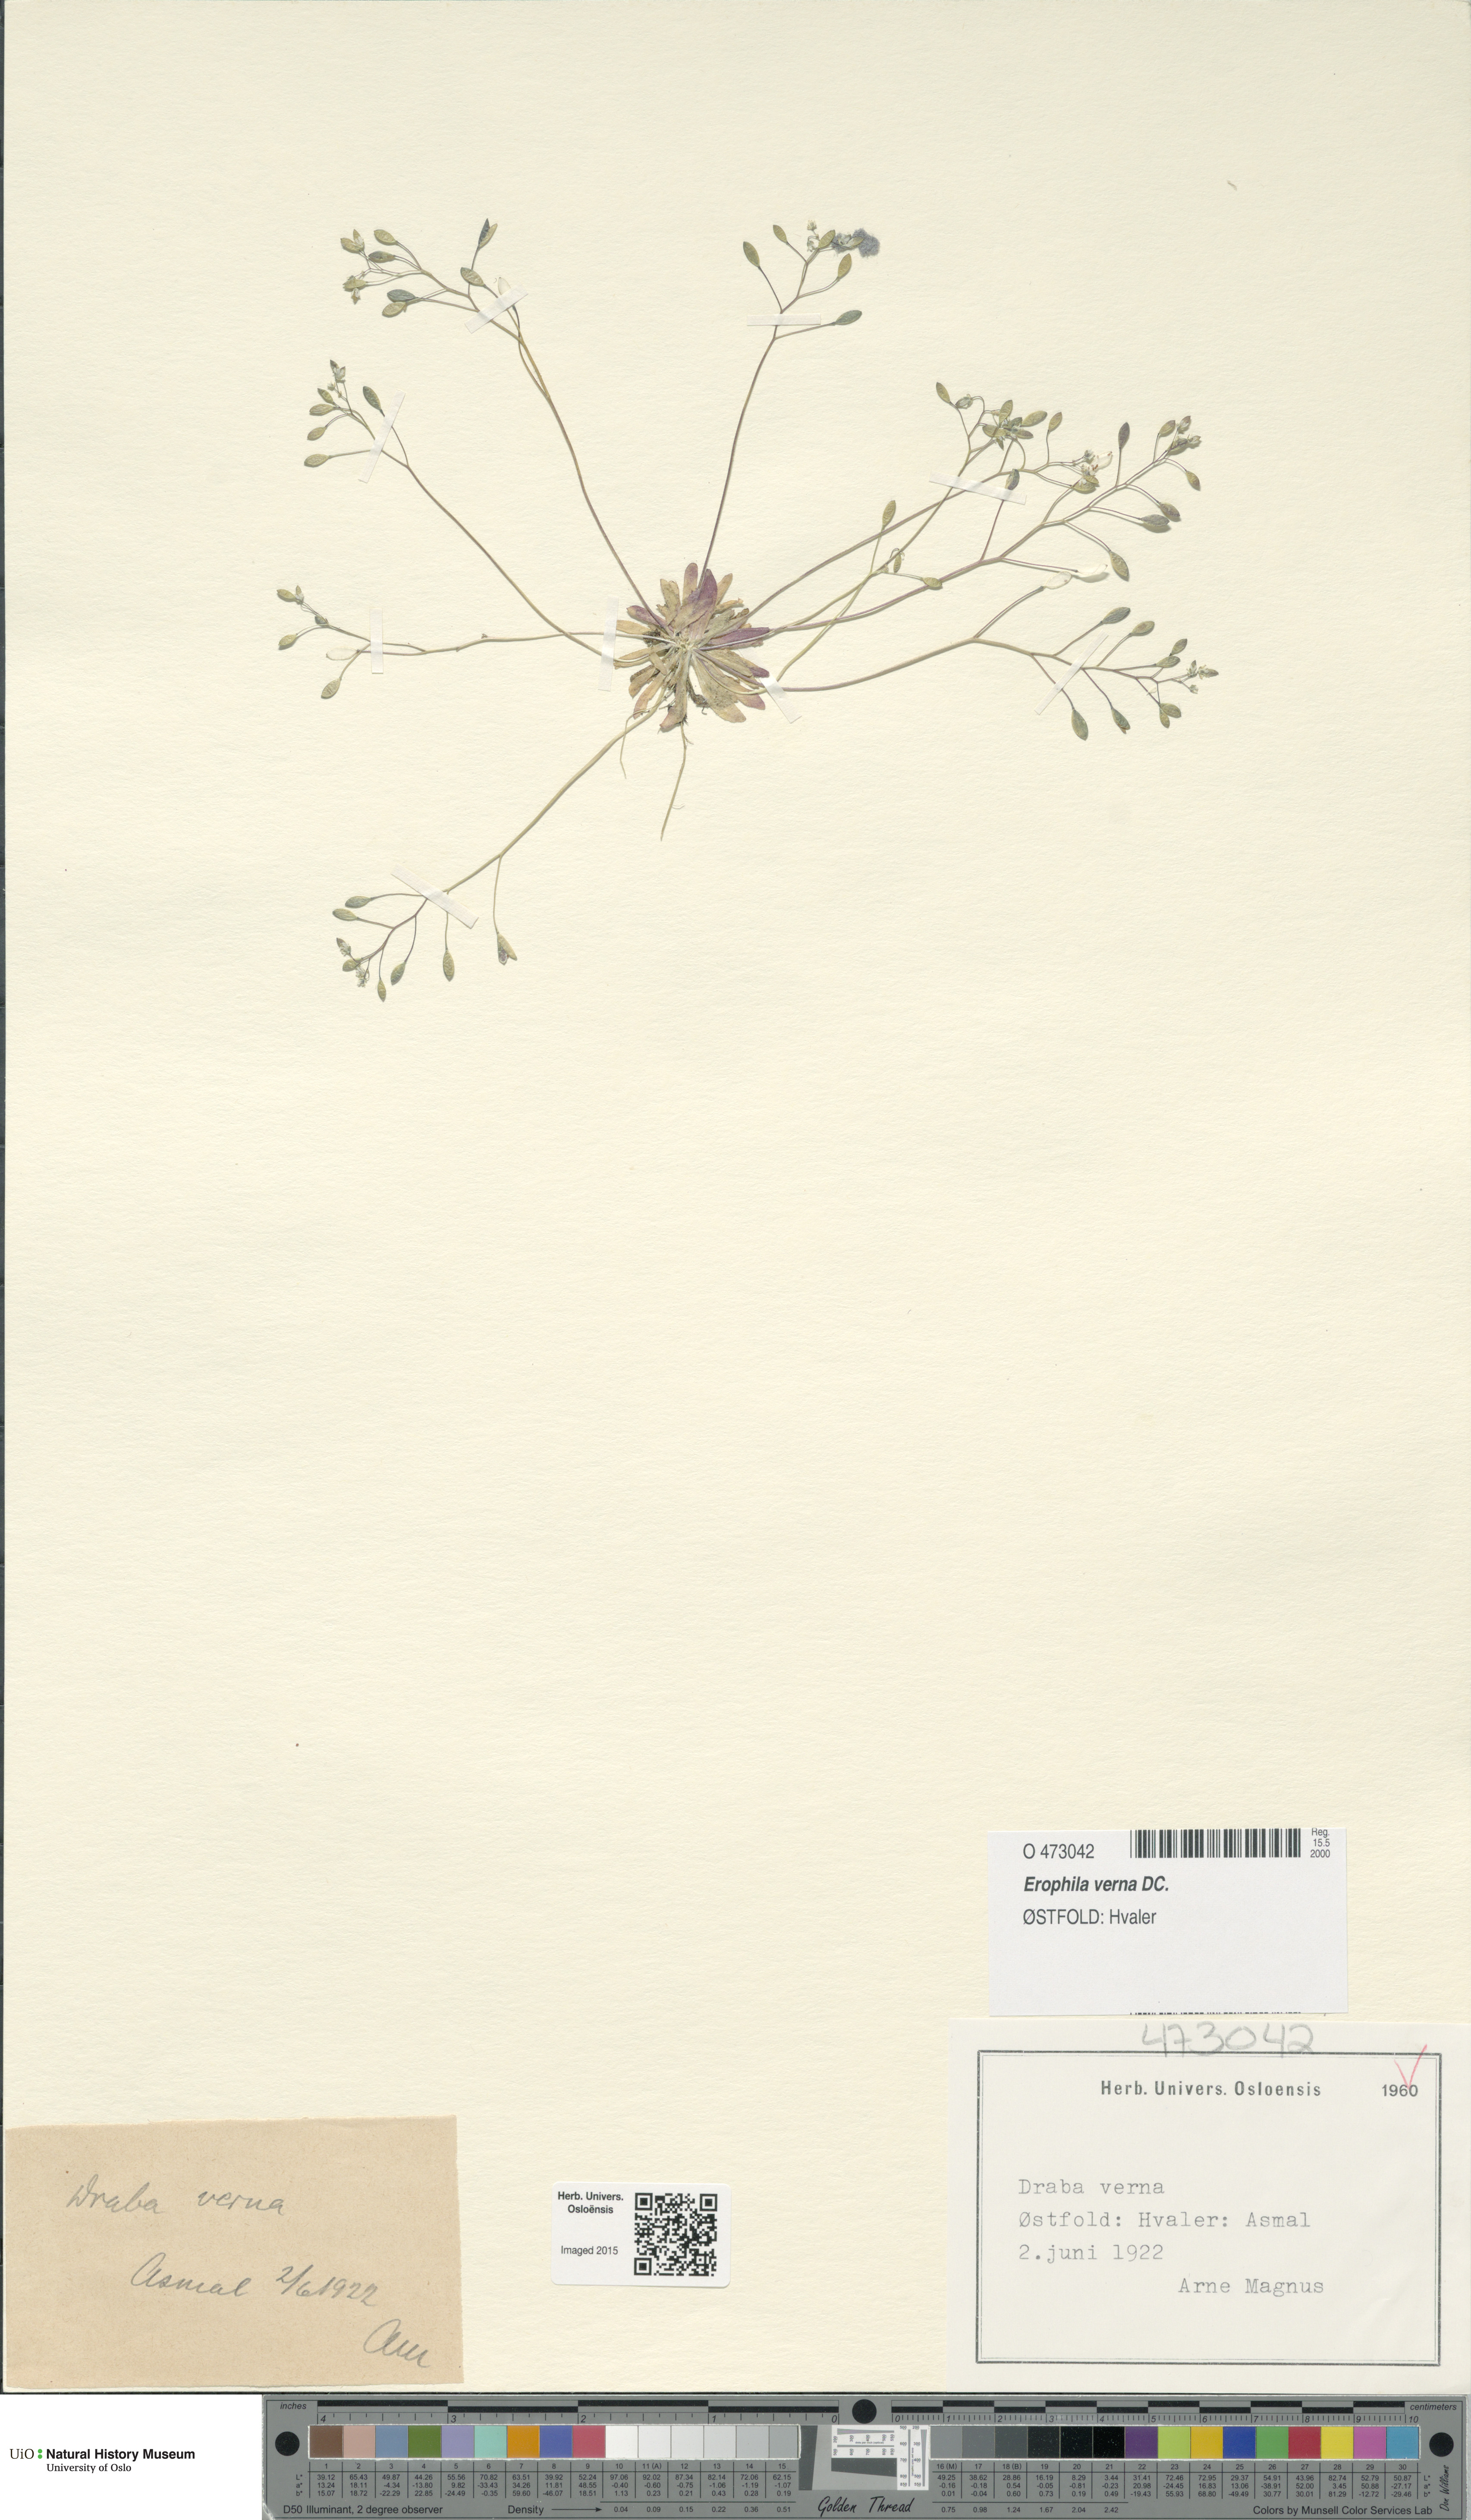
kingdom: Plantae
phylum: Tracheophyta
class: Magnoliopsida
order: Brassicales
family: Brassicaceae
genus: Draba
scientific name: Draba verna
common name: Spring draba
